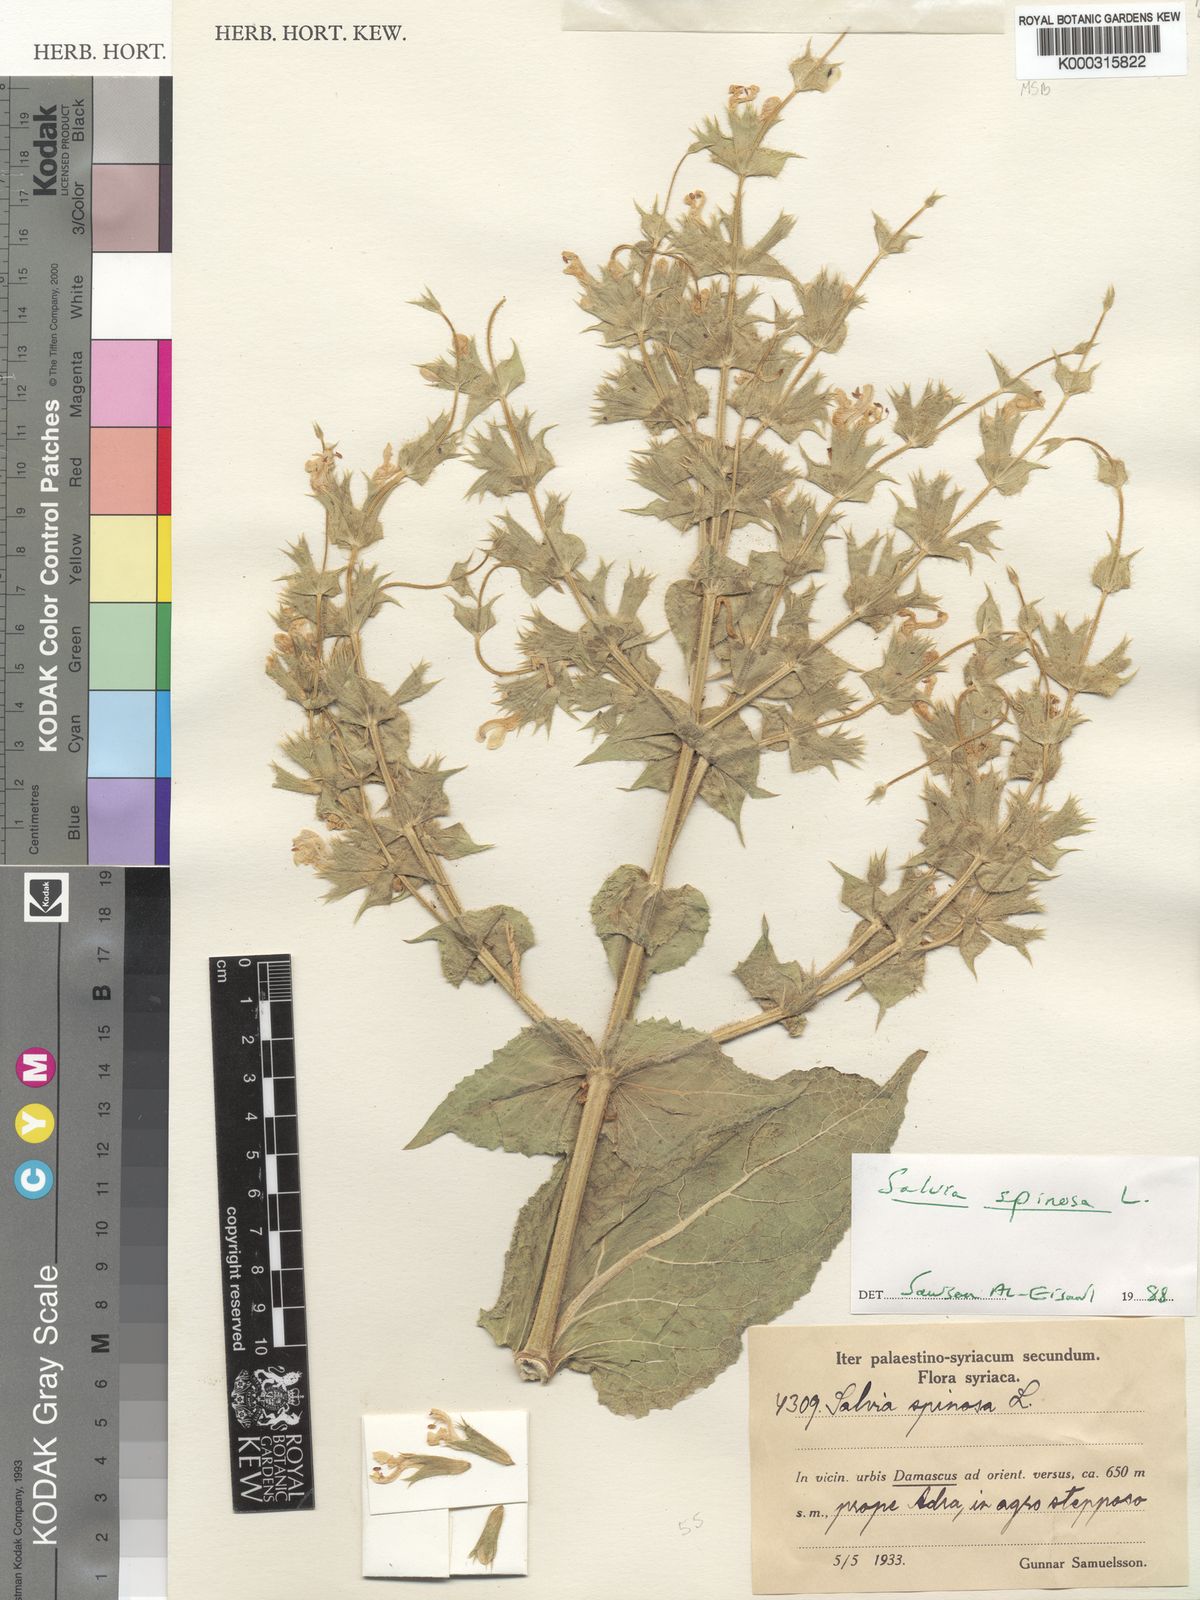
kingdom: Plantae
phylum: Tracheophyta
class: Magnoliopsida
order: Lamiales
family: Lamiaceae
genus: Salvia
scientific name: Salvia spinosa
